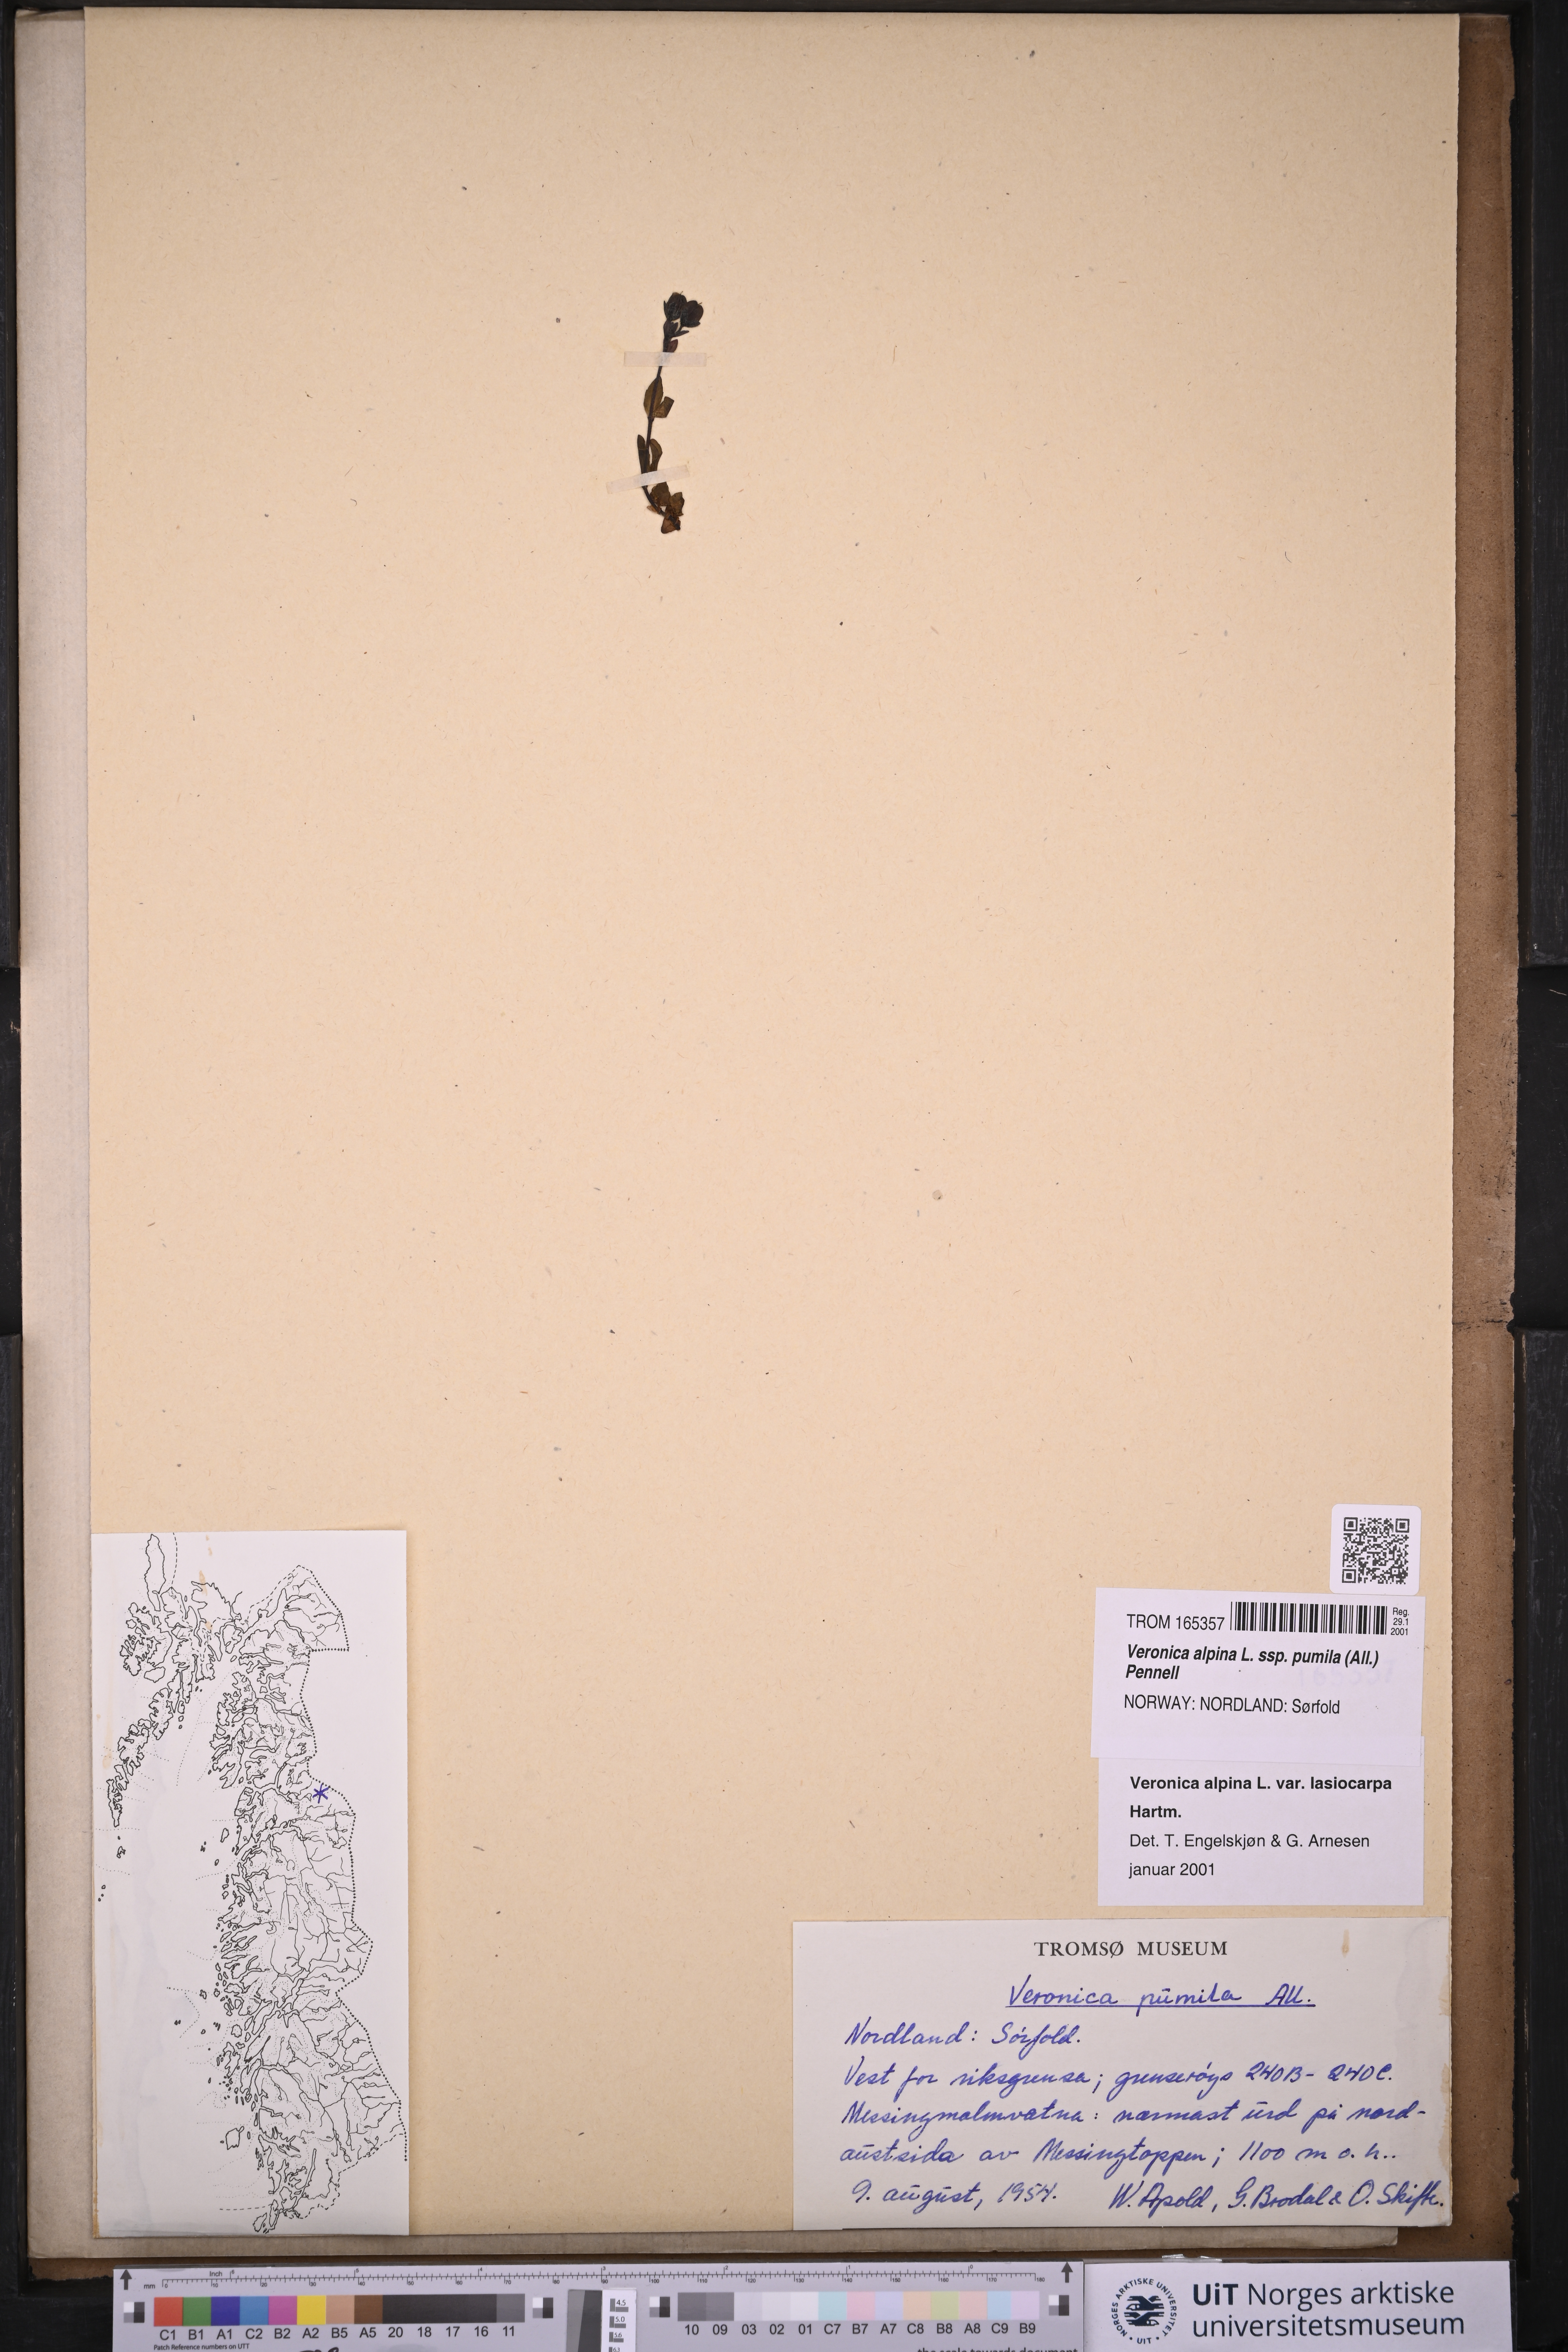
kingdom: Plantae
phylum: Tracheophyta
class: Magnoliopsida
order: Lamiales
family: Plantaginaceae
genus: Veronica
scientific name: Veronica alpina
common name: Alpine speedwell
